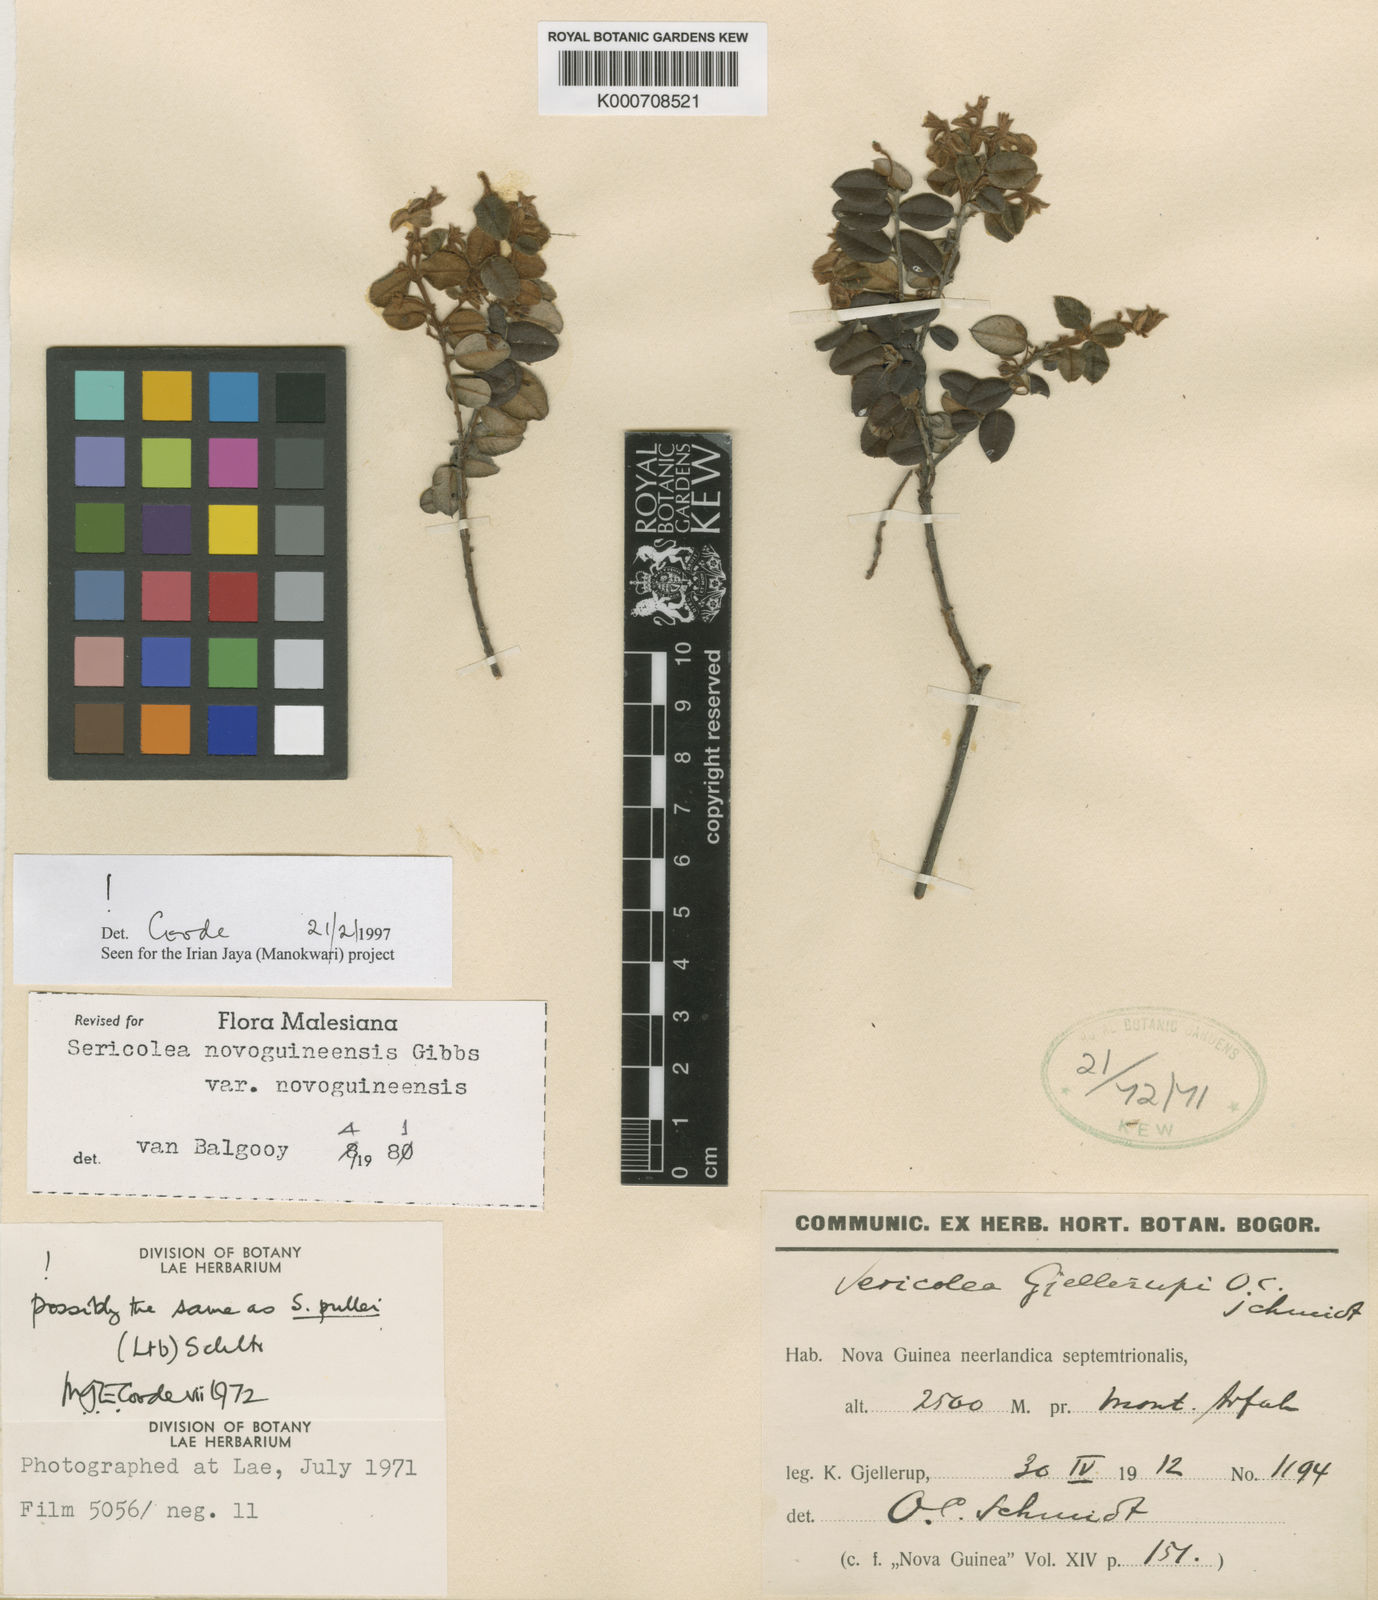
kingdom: Plantae
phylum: Tracheophyta
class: Magnoliopsida
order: Oxalidales
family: Elaeocarpaceae
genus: Sericolea
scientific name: Sericolea novoguineensis
